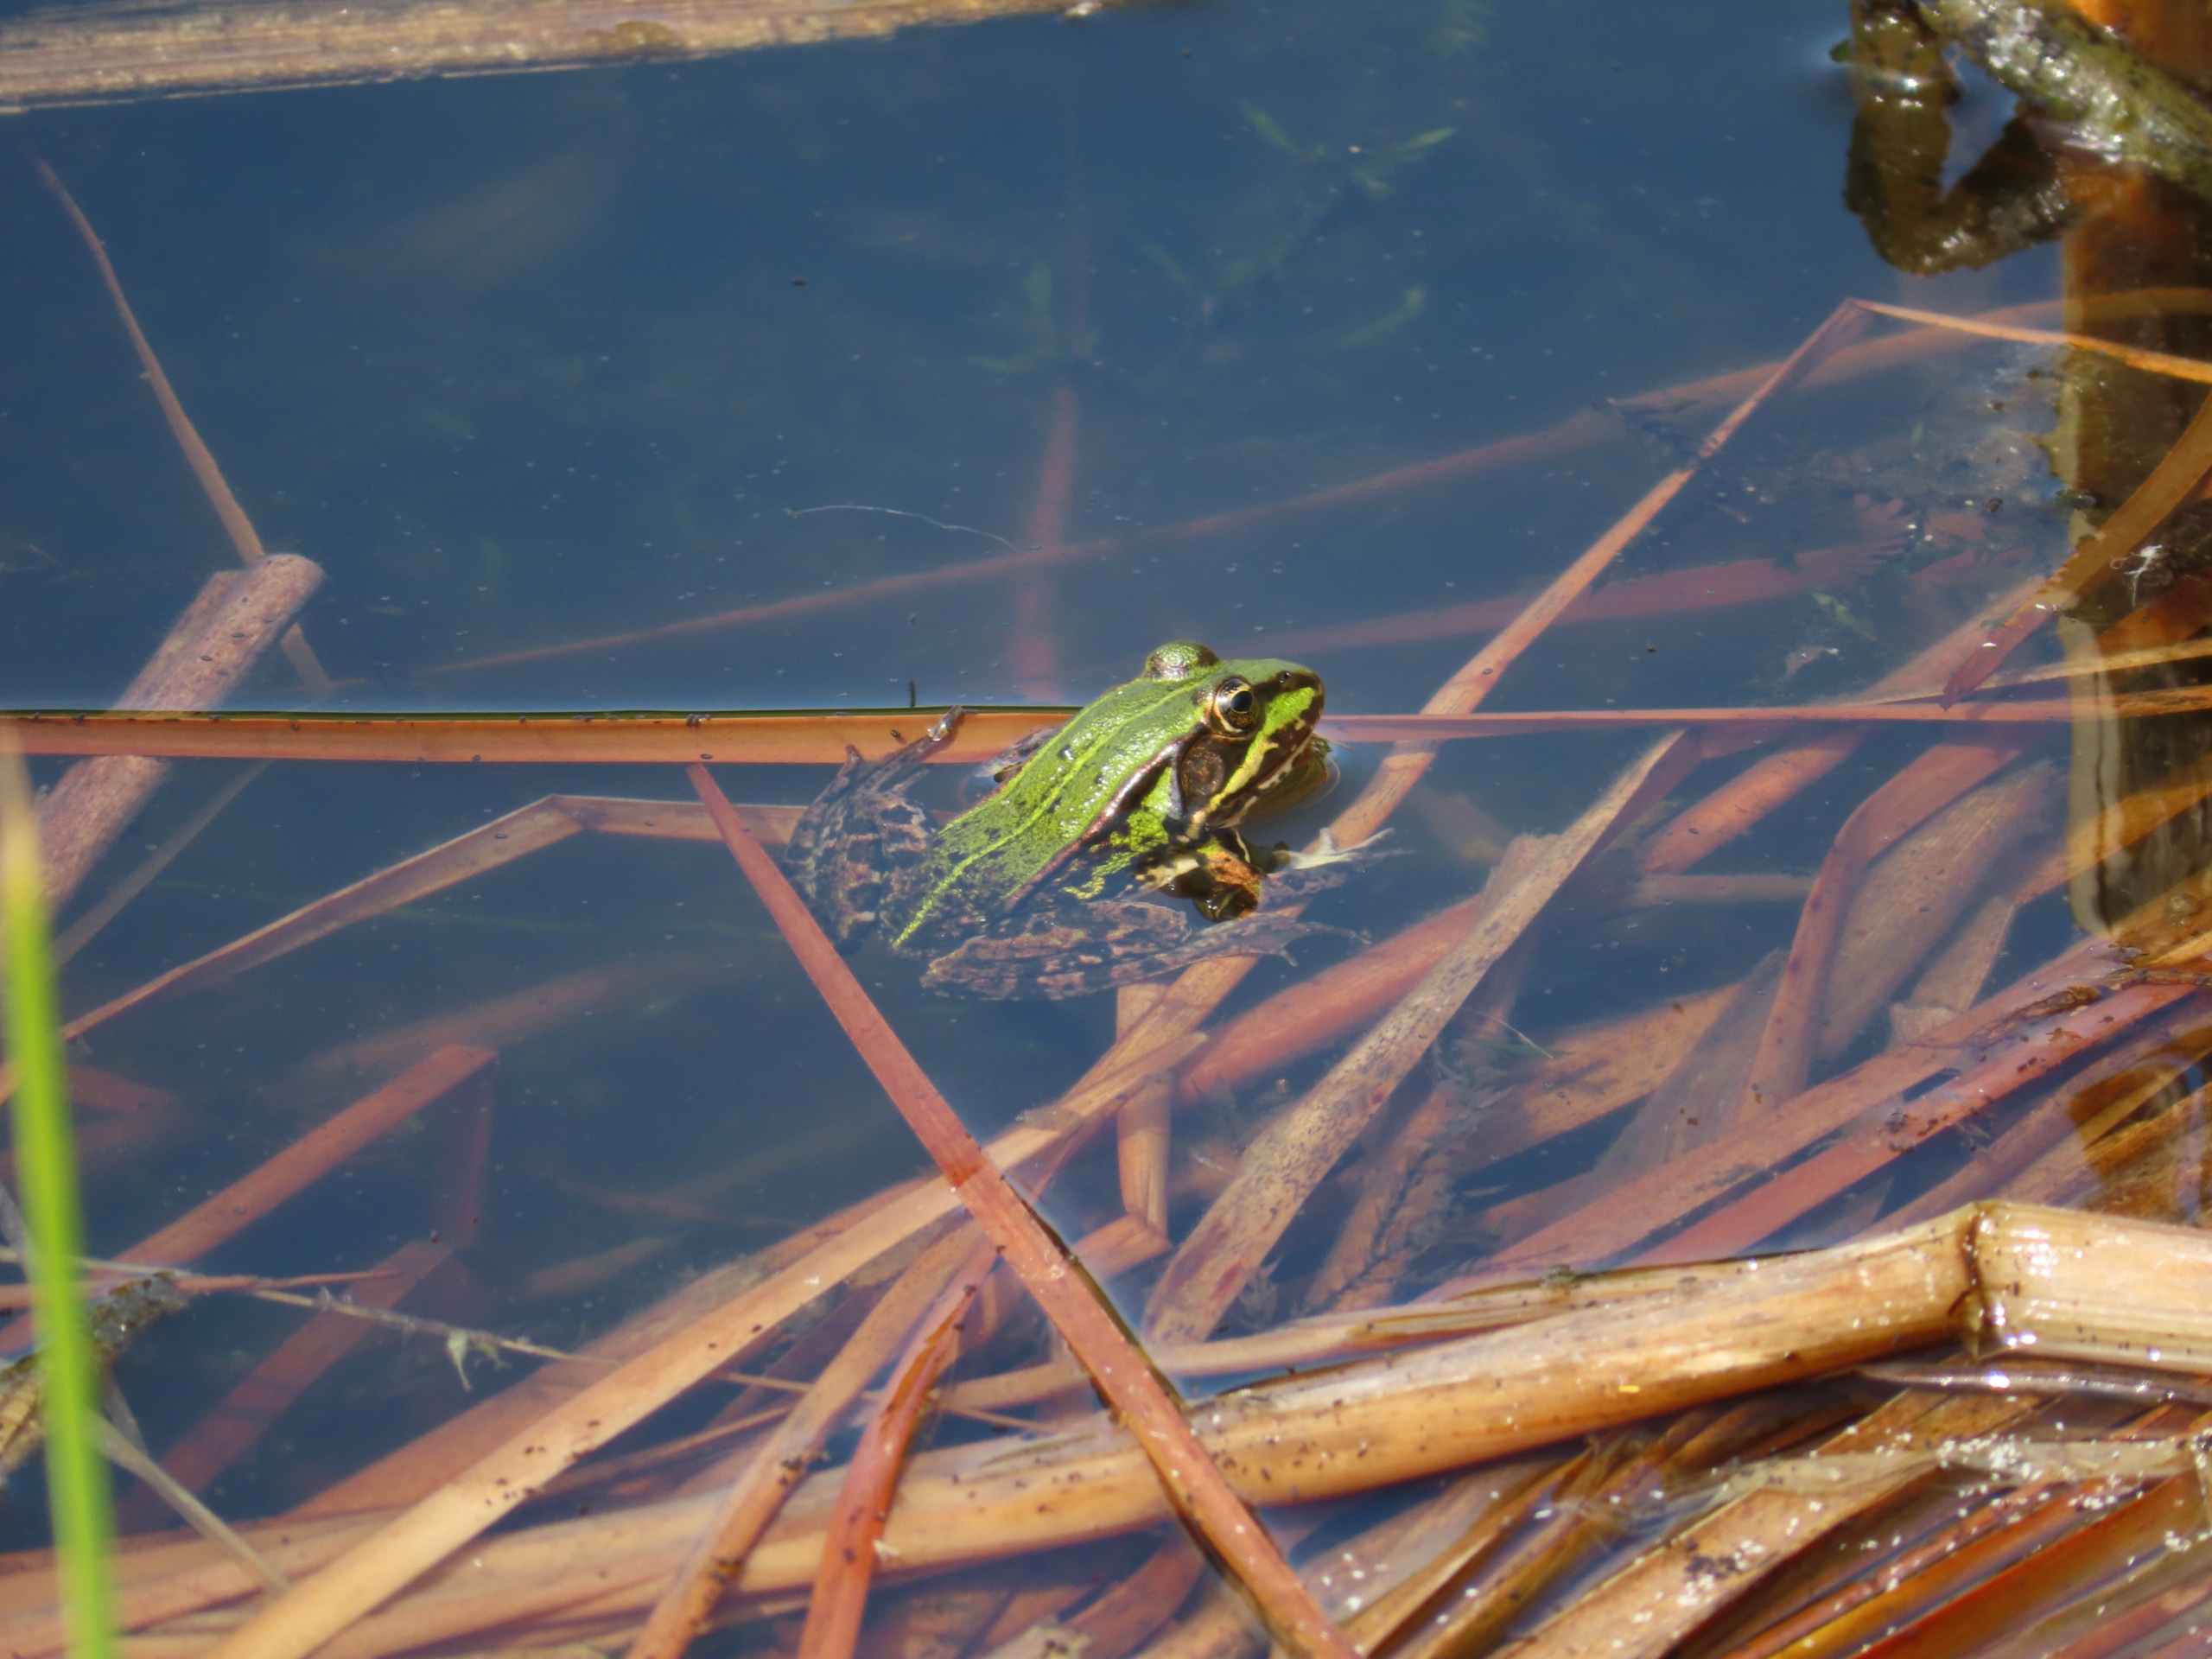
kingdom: Animalia
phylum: Chordata
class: Amphibia
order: Anura
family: Ranidae
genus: Pelophylax
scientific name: Pelophylax lessonae
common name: Grøn frø
